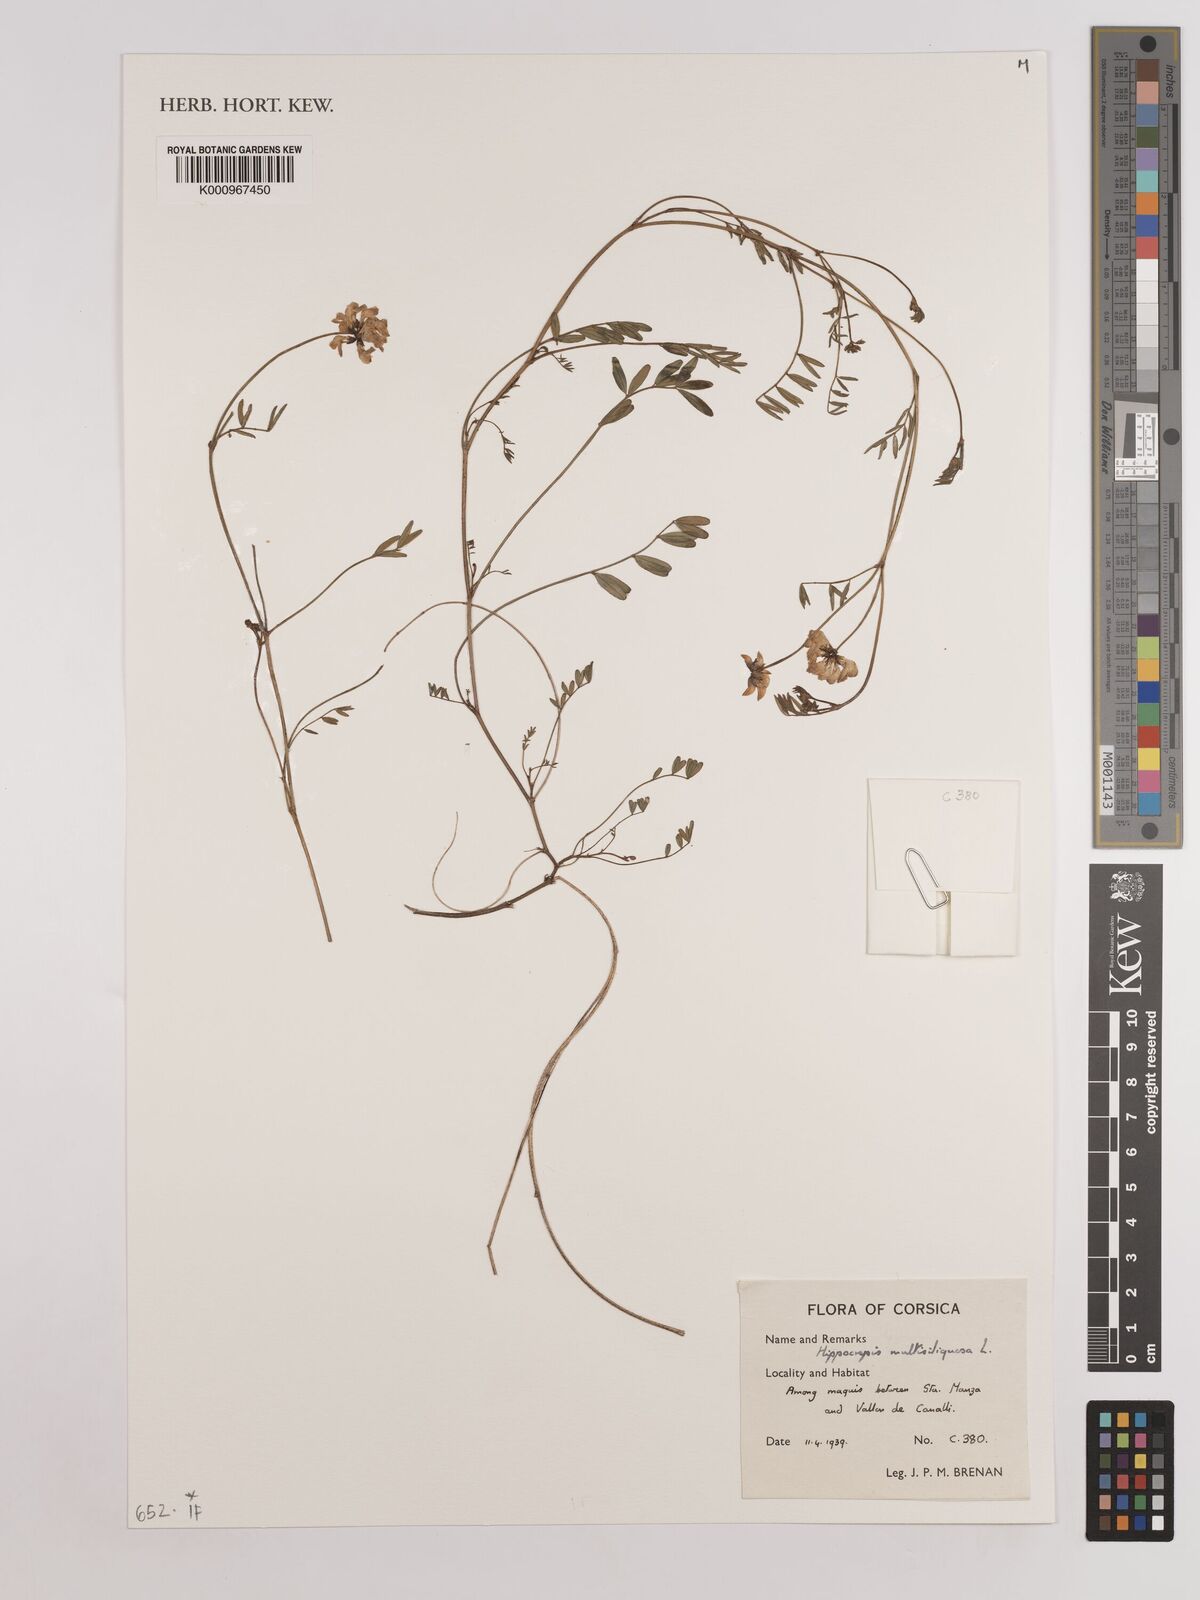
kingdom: Plantae
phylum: Tracheophyta
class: Magnoliopsida
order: Fabales
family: Fabaceae
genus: Hippocrepis
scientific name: Hippocrepis multisiliquosa
